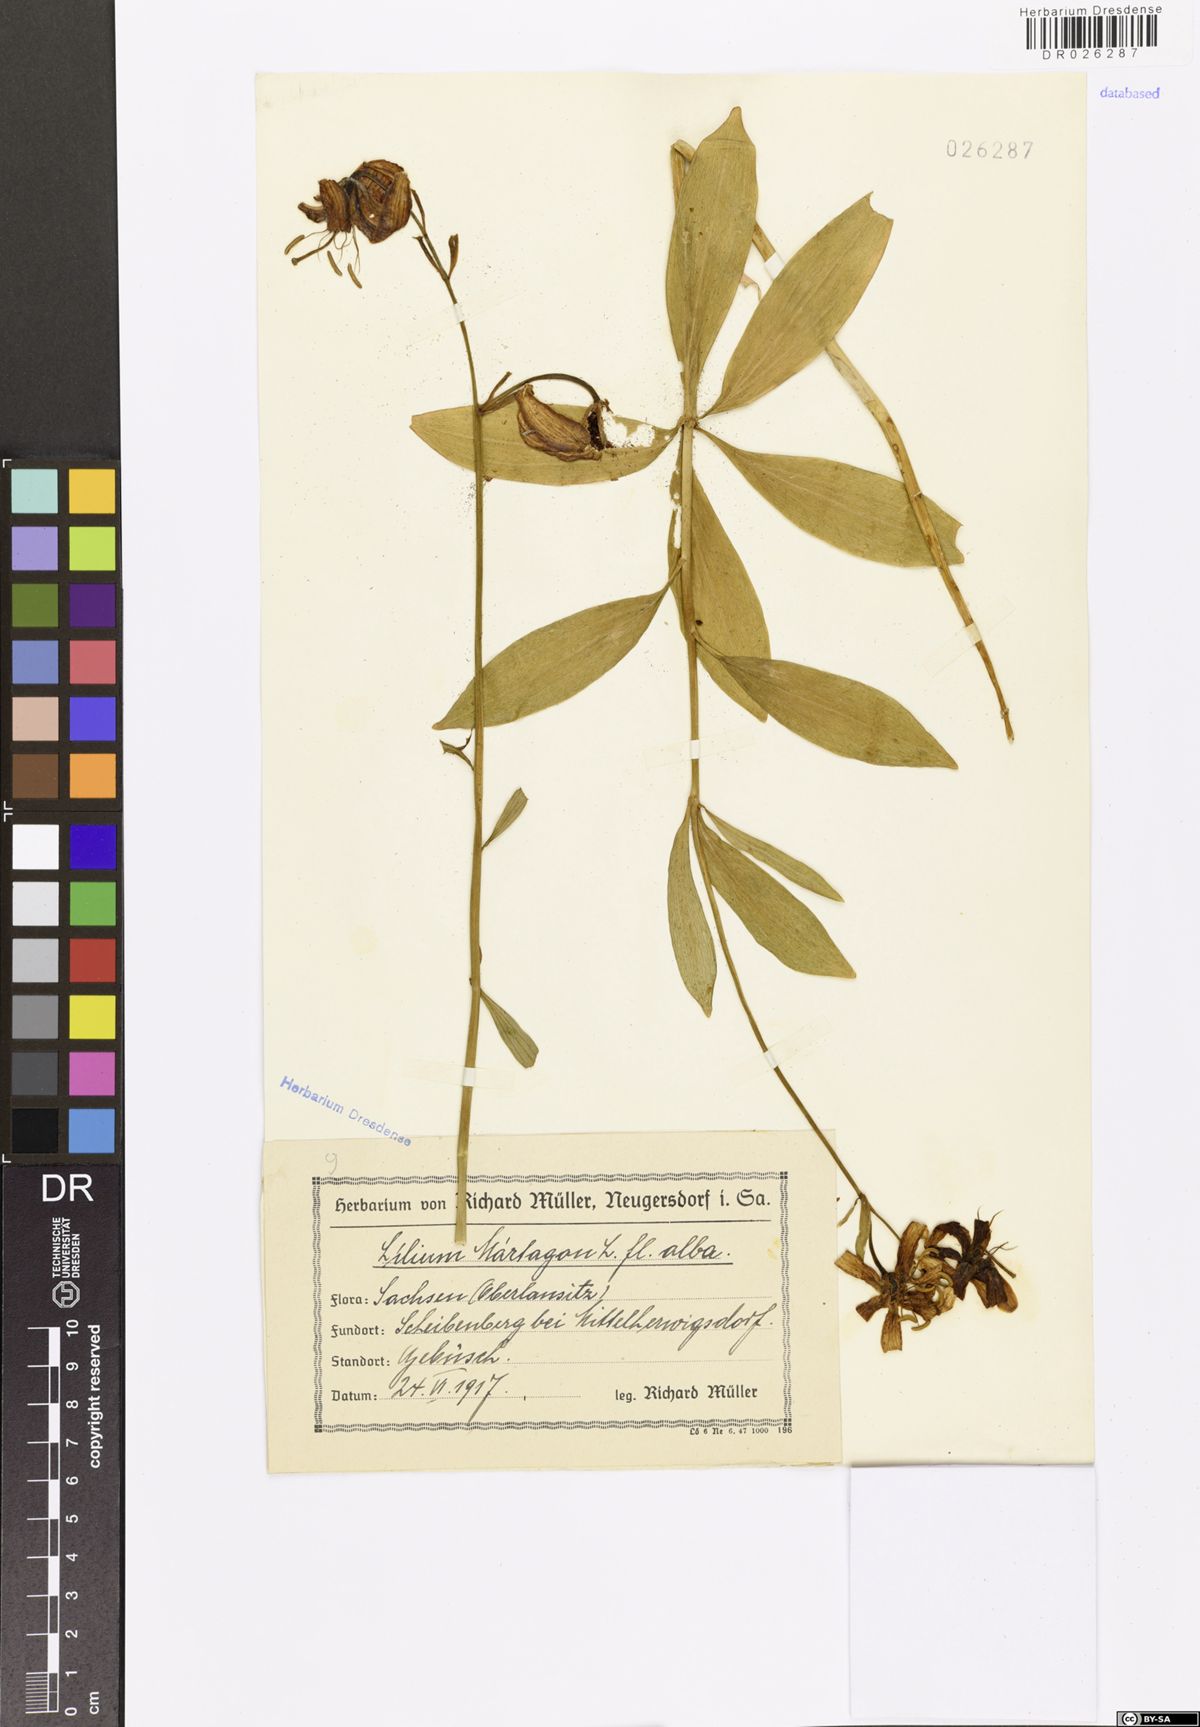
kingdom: Plantae
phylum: Tracheophyta
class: Liliopsida
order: Liliales
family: Liliaceae
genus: Lilium
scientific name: Lilium martagon
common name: Martagon lily
